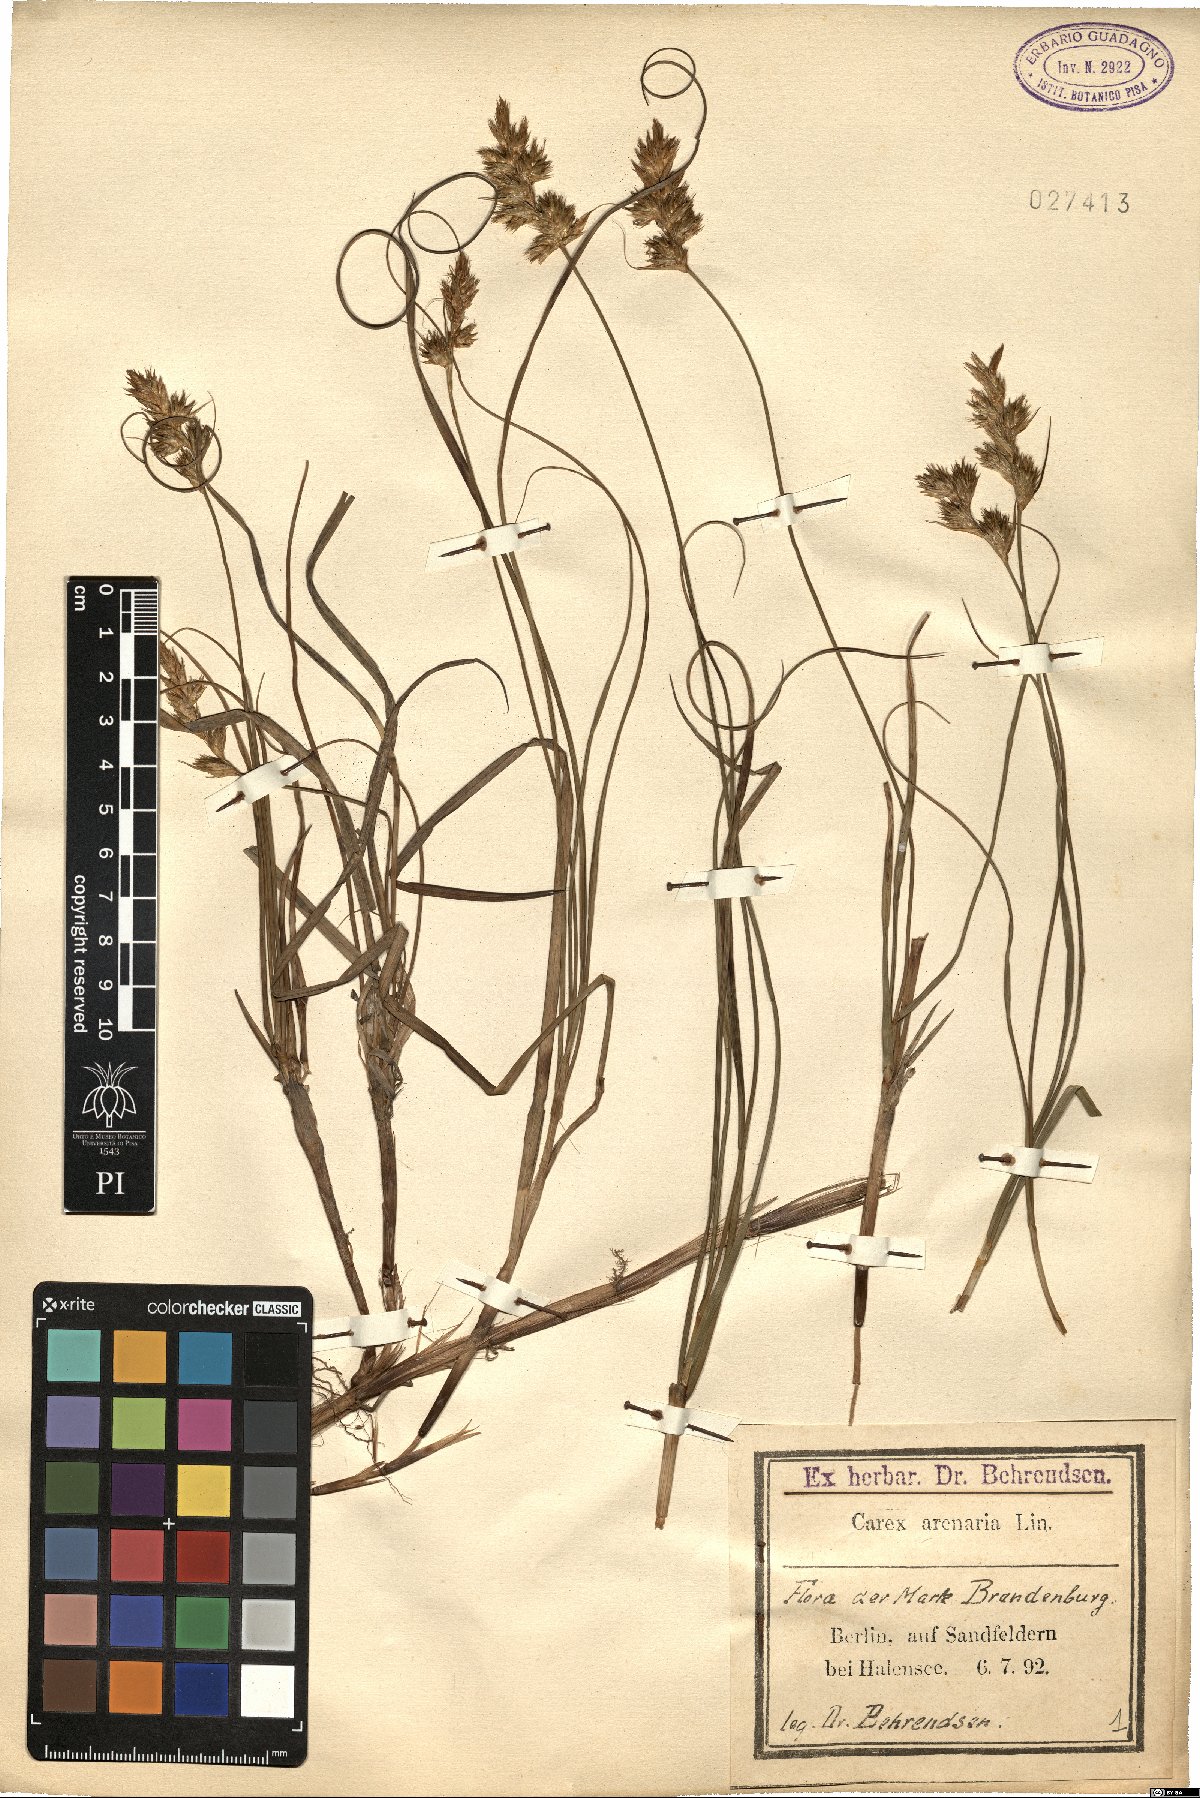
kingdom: Plantae
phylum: Tracheophyta
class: Liliopsida
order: Poales
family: Cyperaceae
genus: Carex
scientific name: Carex arenaria
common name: Sand sedge
